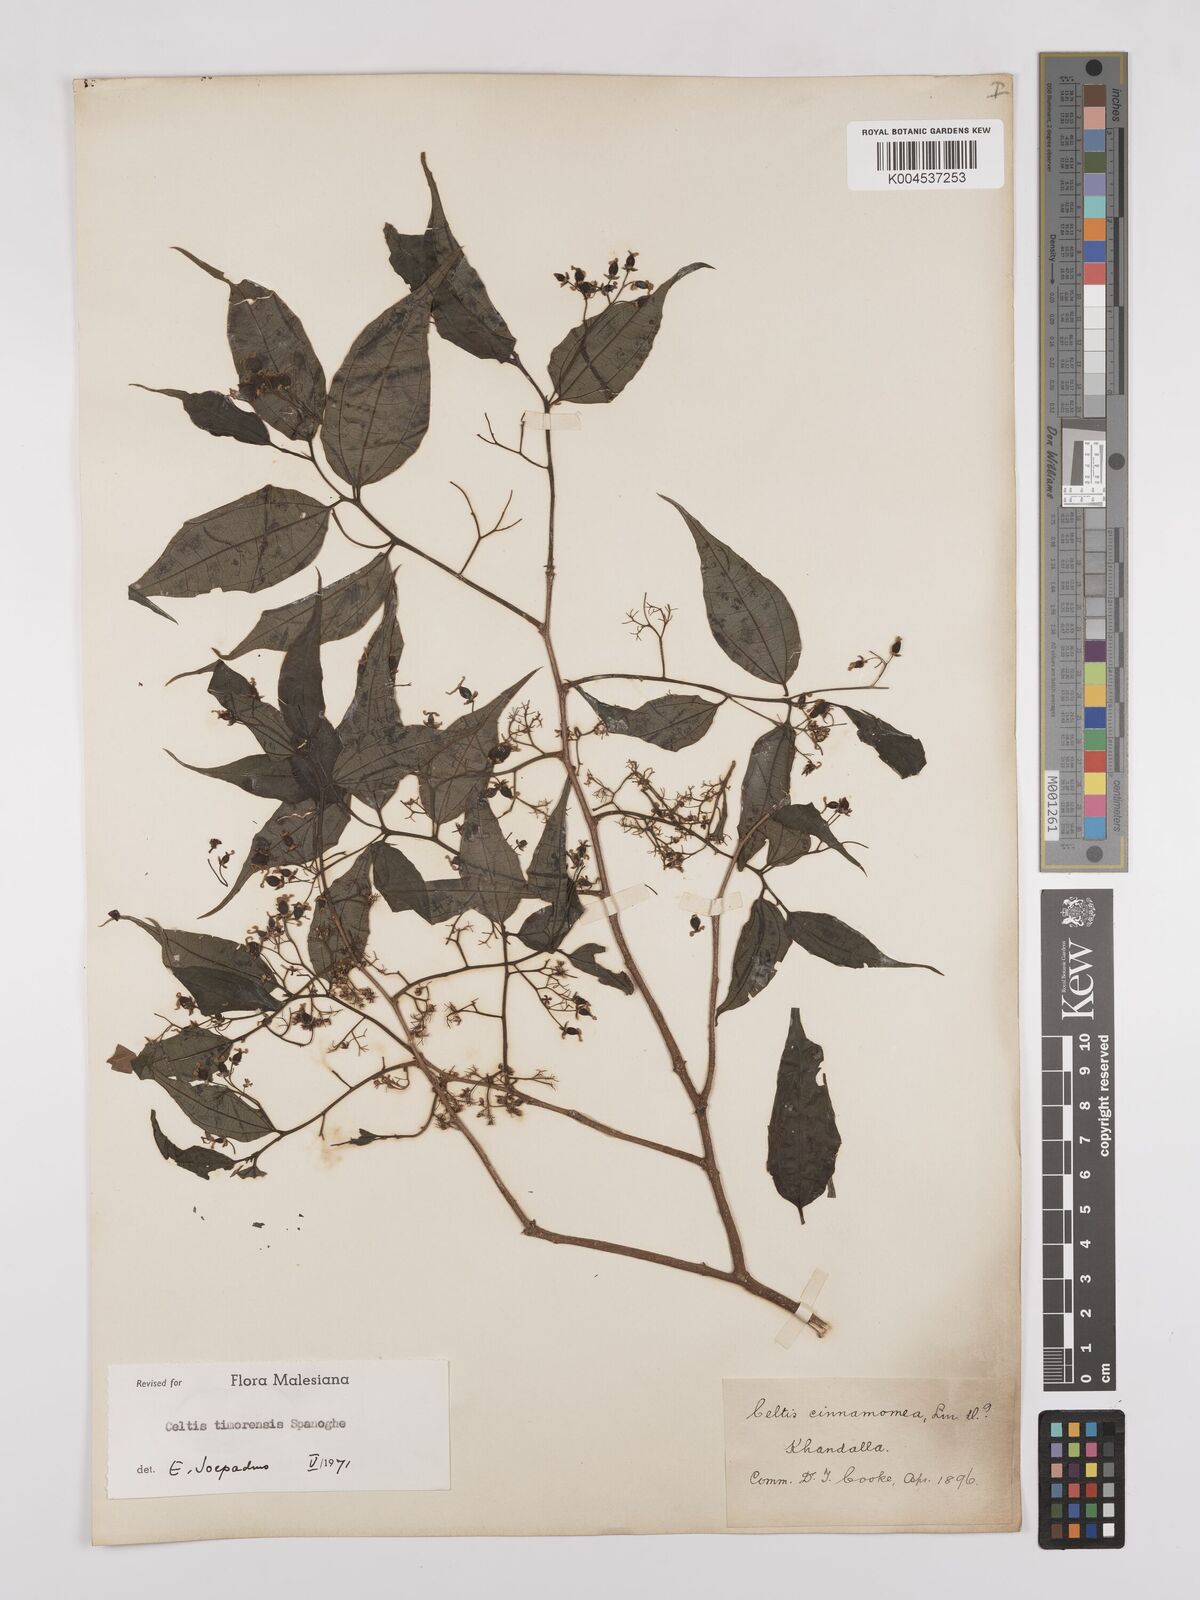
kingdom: Plantae
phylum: Tracheophyta
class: Magnoliopsida
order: Rosales
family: Cannabaceae
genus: Celtis
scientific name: Celtis timorensis
